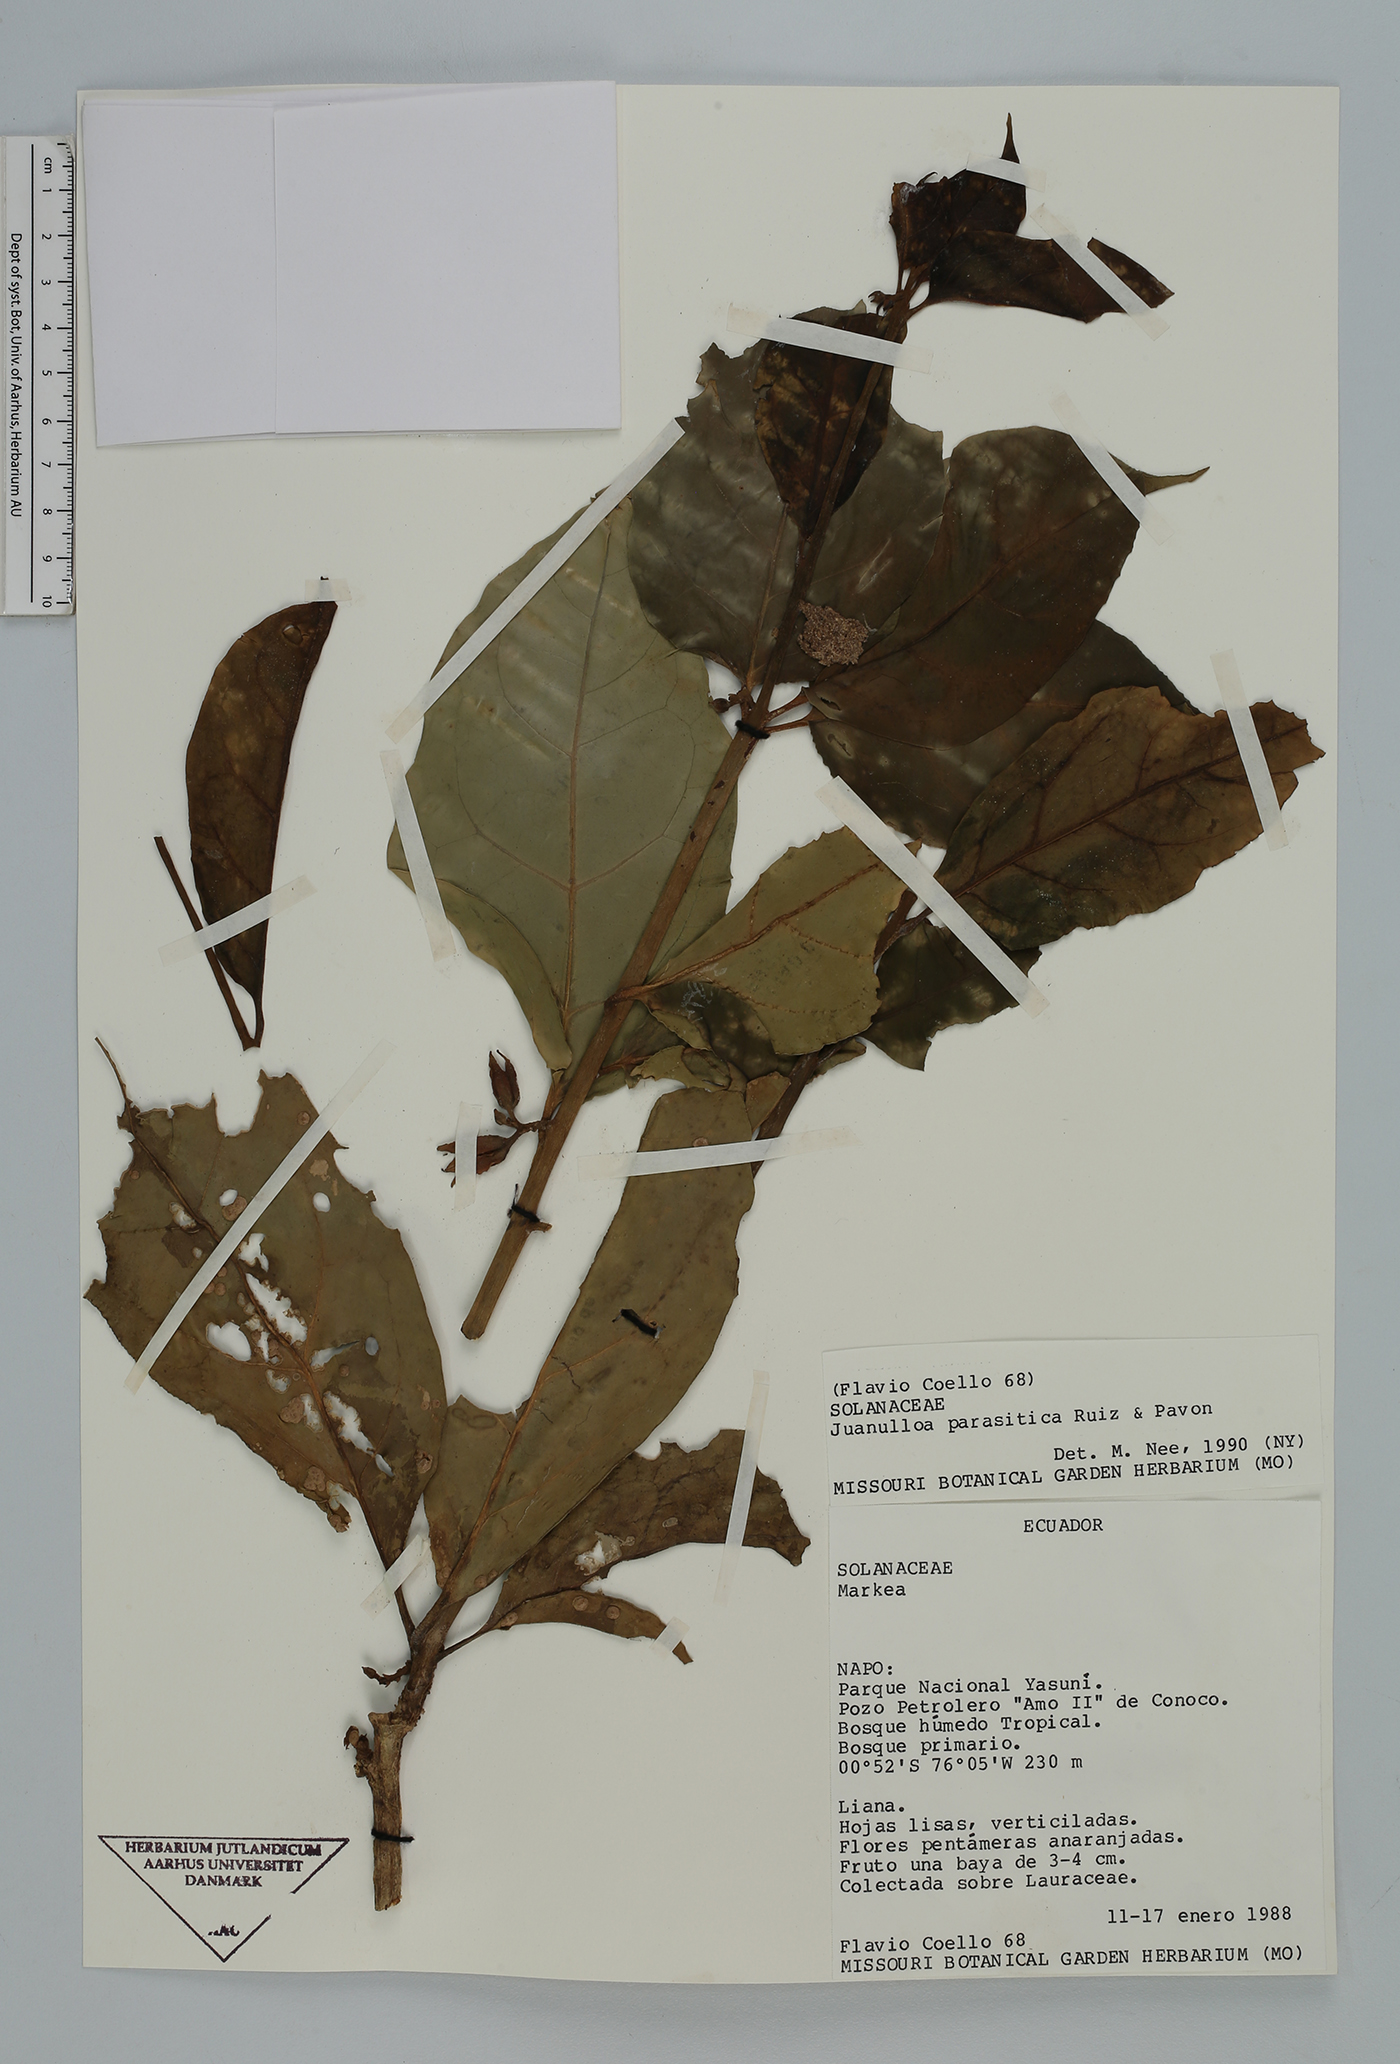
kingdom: Plantae
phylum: Tracheophyta
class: Magnoliopsida
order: Solanales
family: Solanaceae
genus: Hawkesiophyton
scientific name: Hawkesiophyton ochraceum
